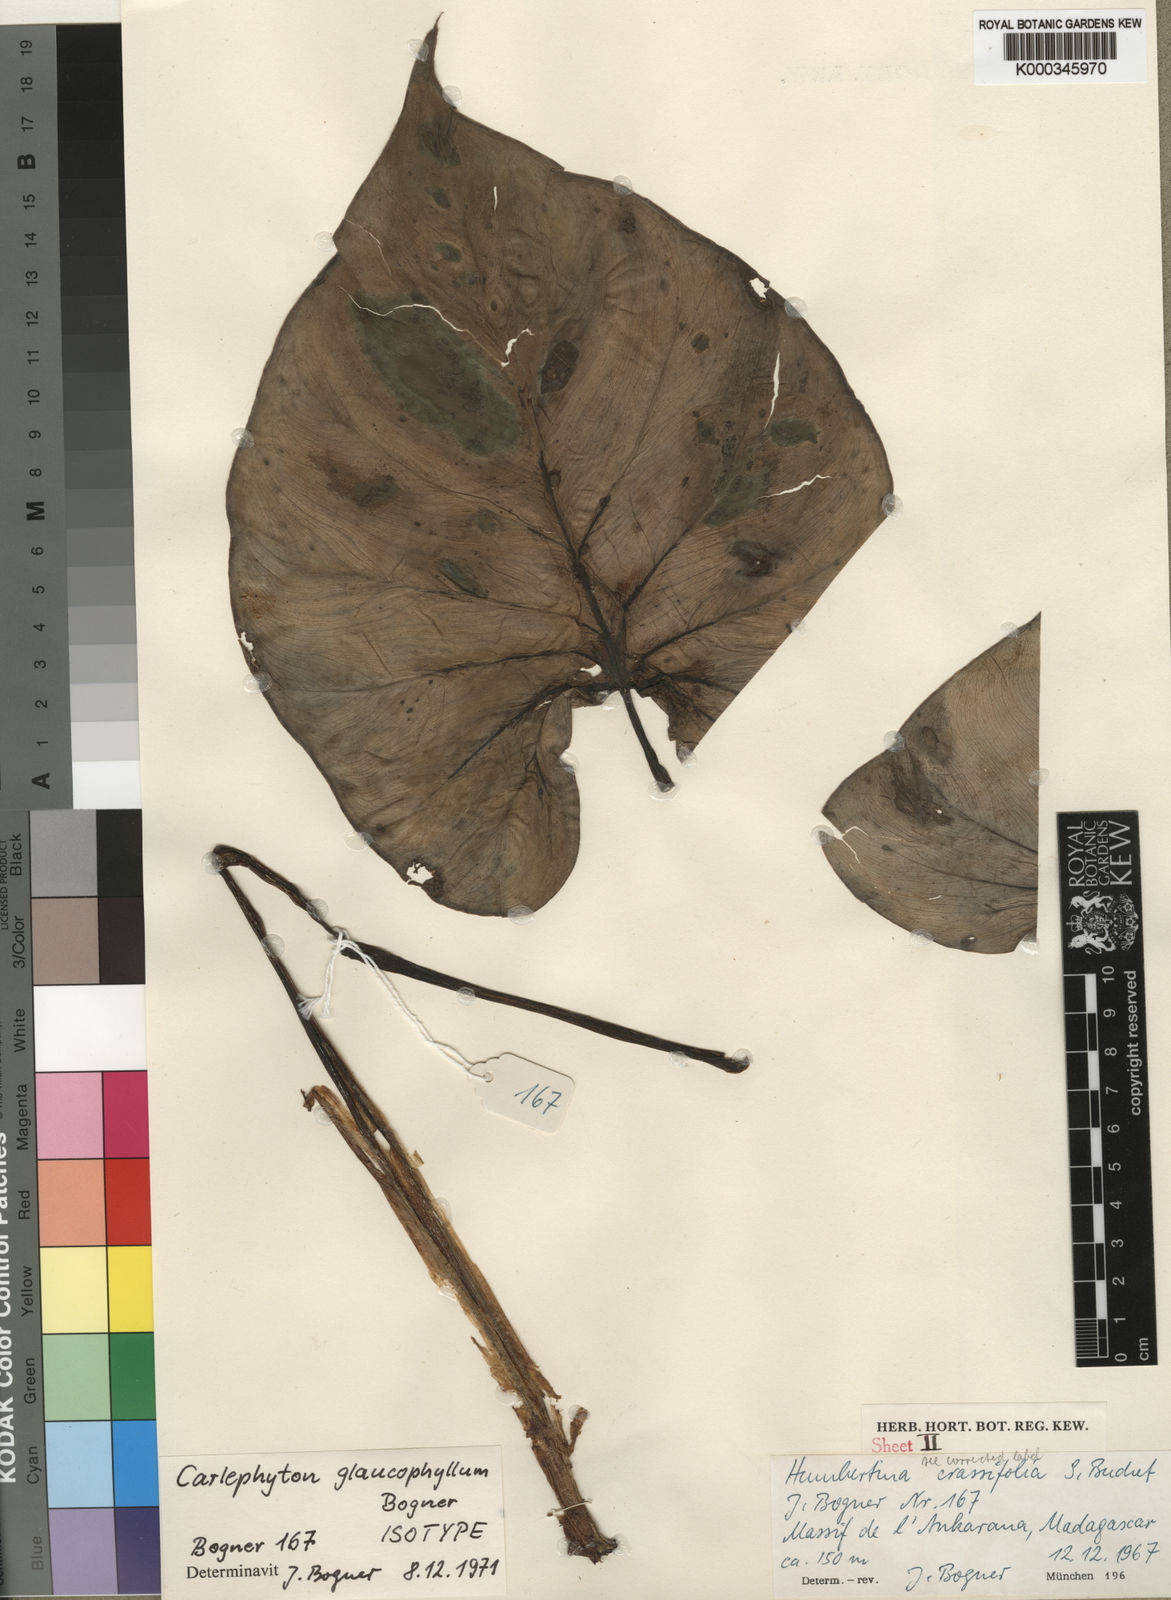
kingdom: Plantae
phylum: Tracheophyta
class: Liliopsida
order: Alismatales
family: Araceae
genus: Carlephyton
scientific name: Carlephyton glaucophyllum
